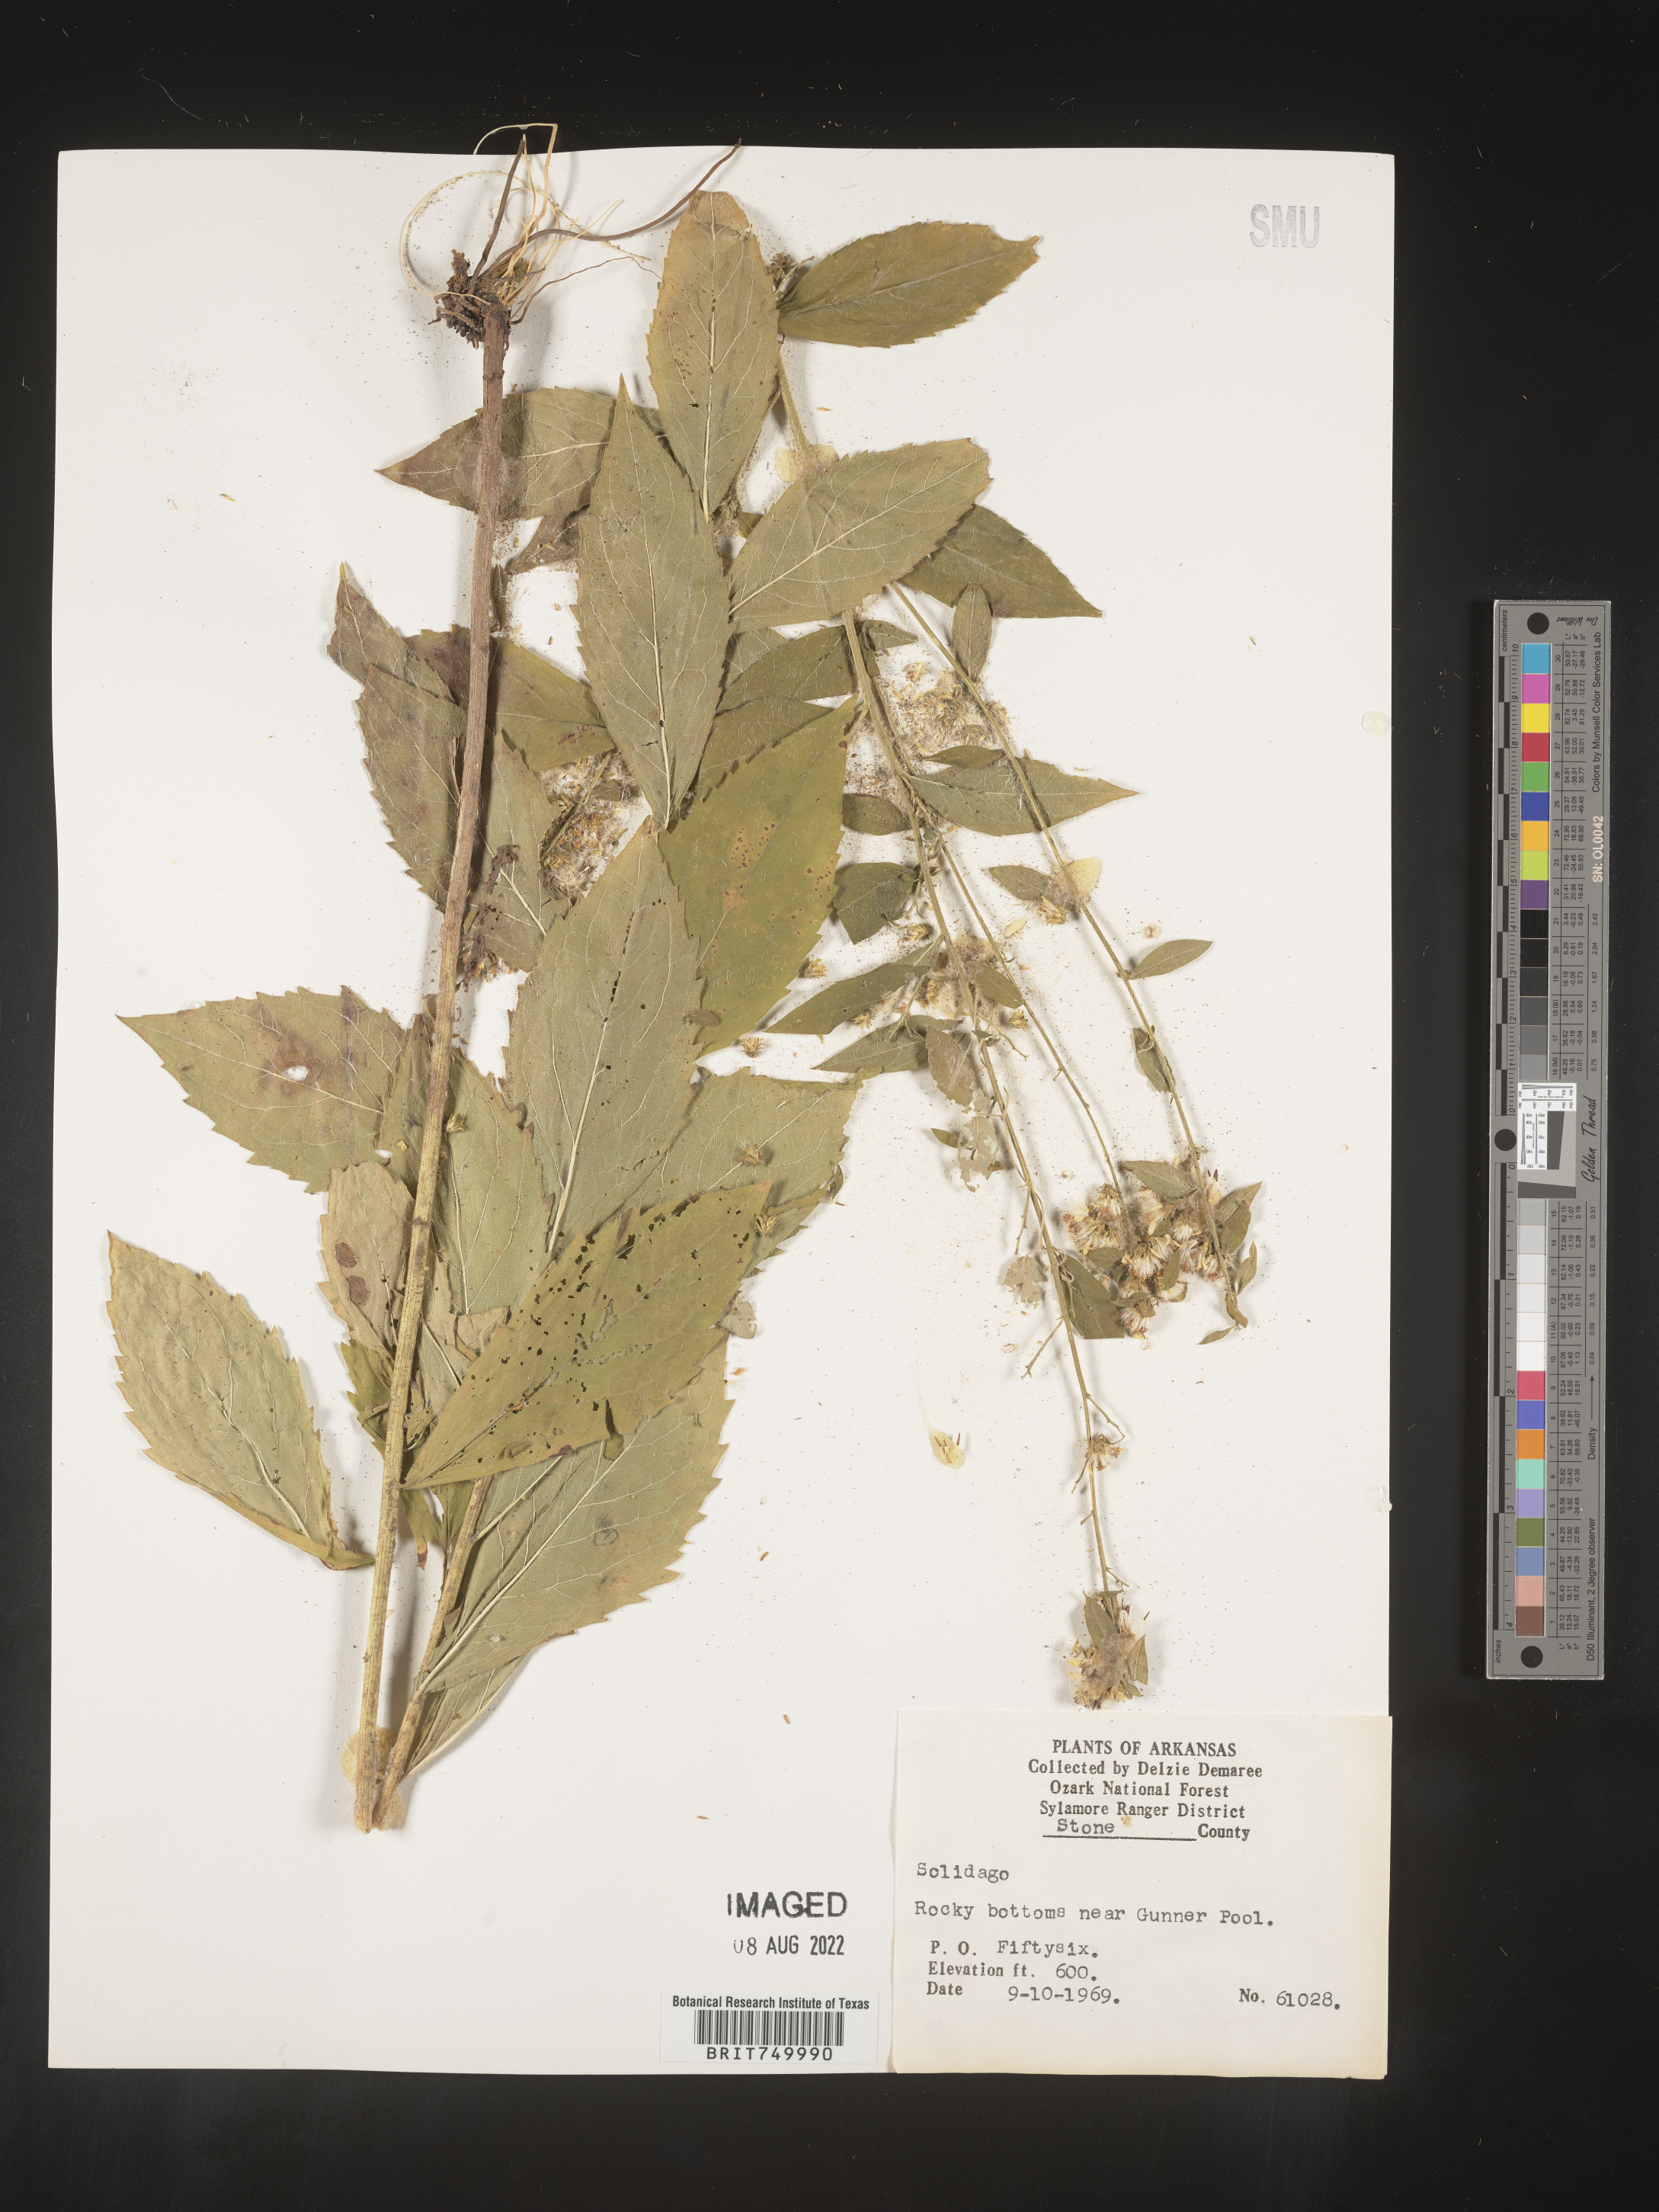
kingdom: Plantae
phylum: Tracheophyta
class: Magnoliopsida
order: Asterales
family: Asteraceae
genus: Solidago
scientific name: Solidago
